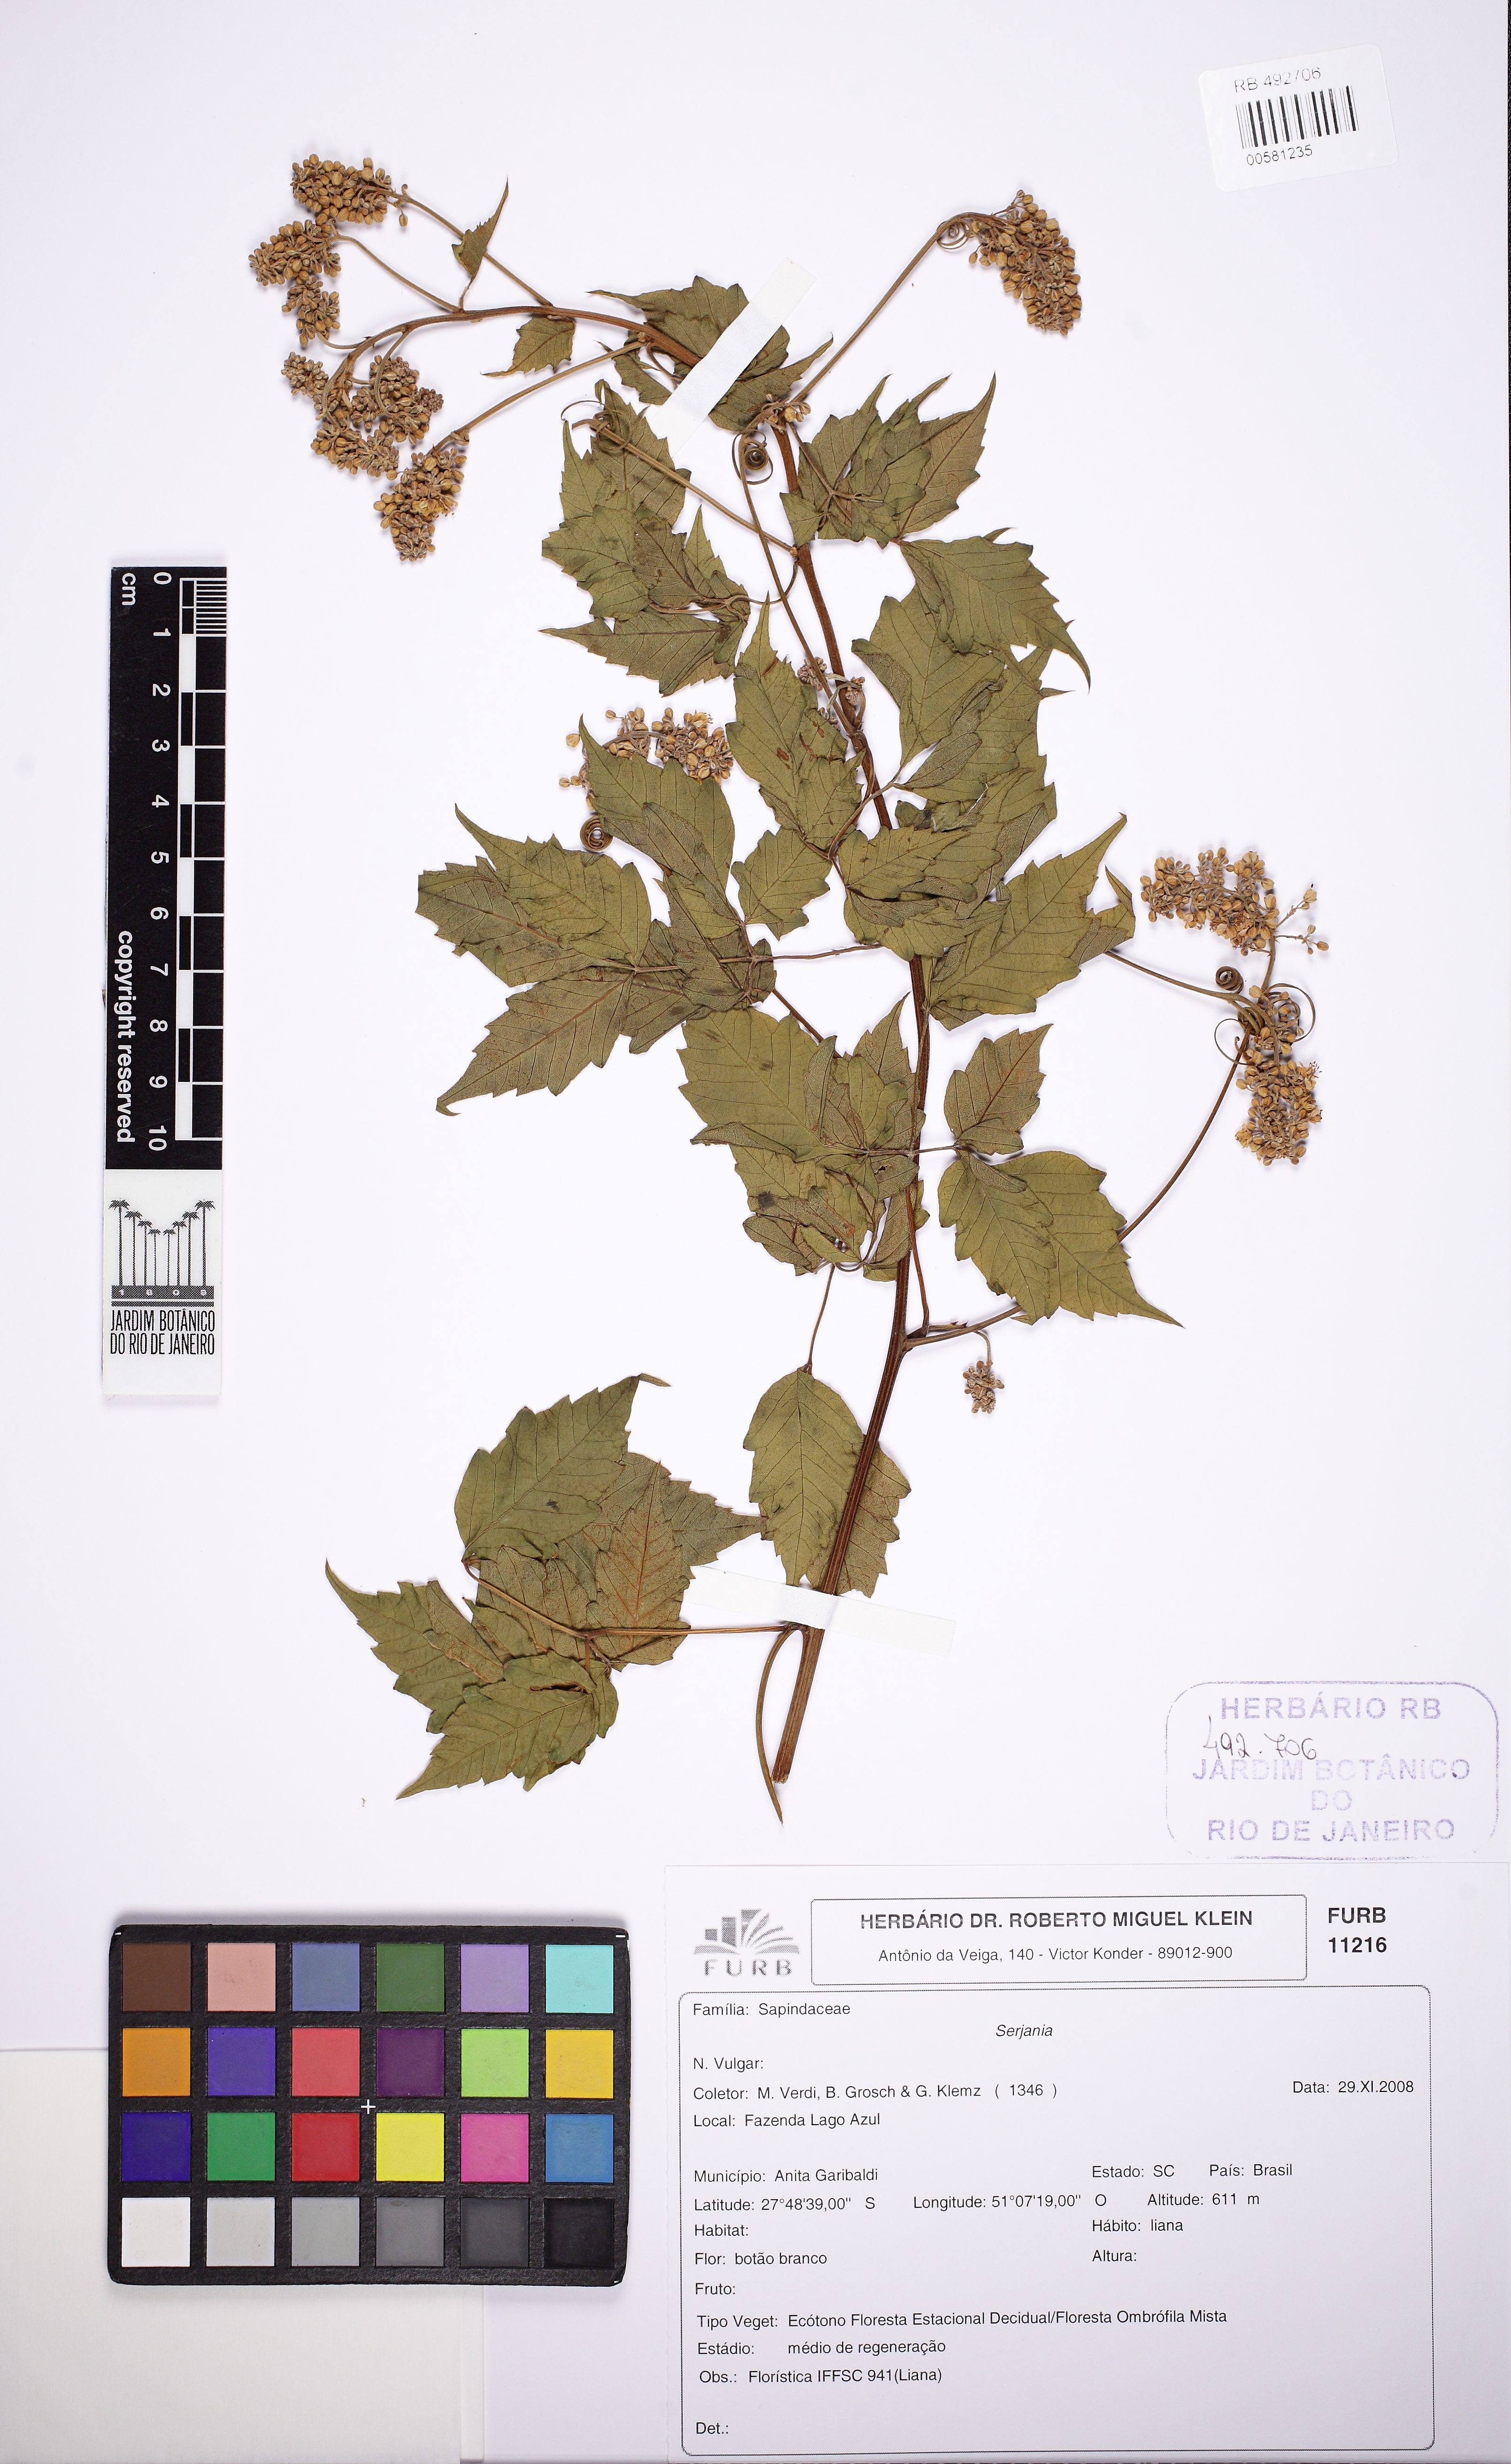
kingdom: Plantae
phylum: Tracheophyta
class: Magnoliopsida
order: Sapindales
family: Sapindaceae
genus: Serjania
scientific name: Serjania confertiflora
